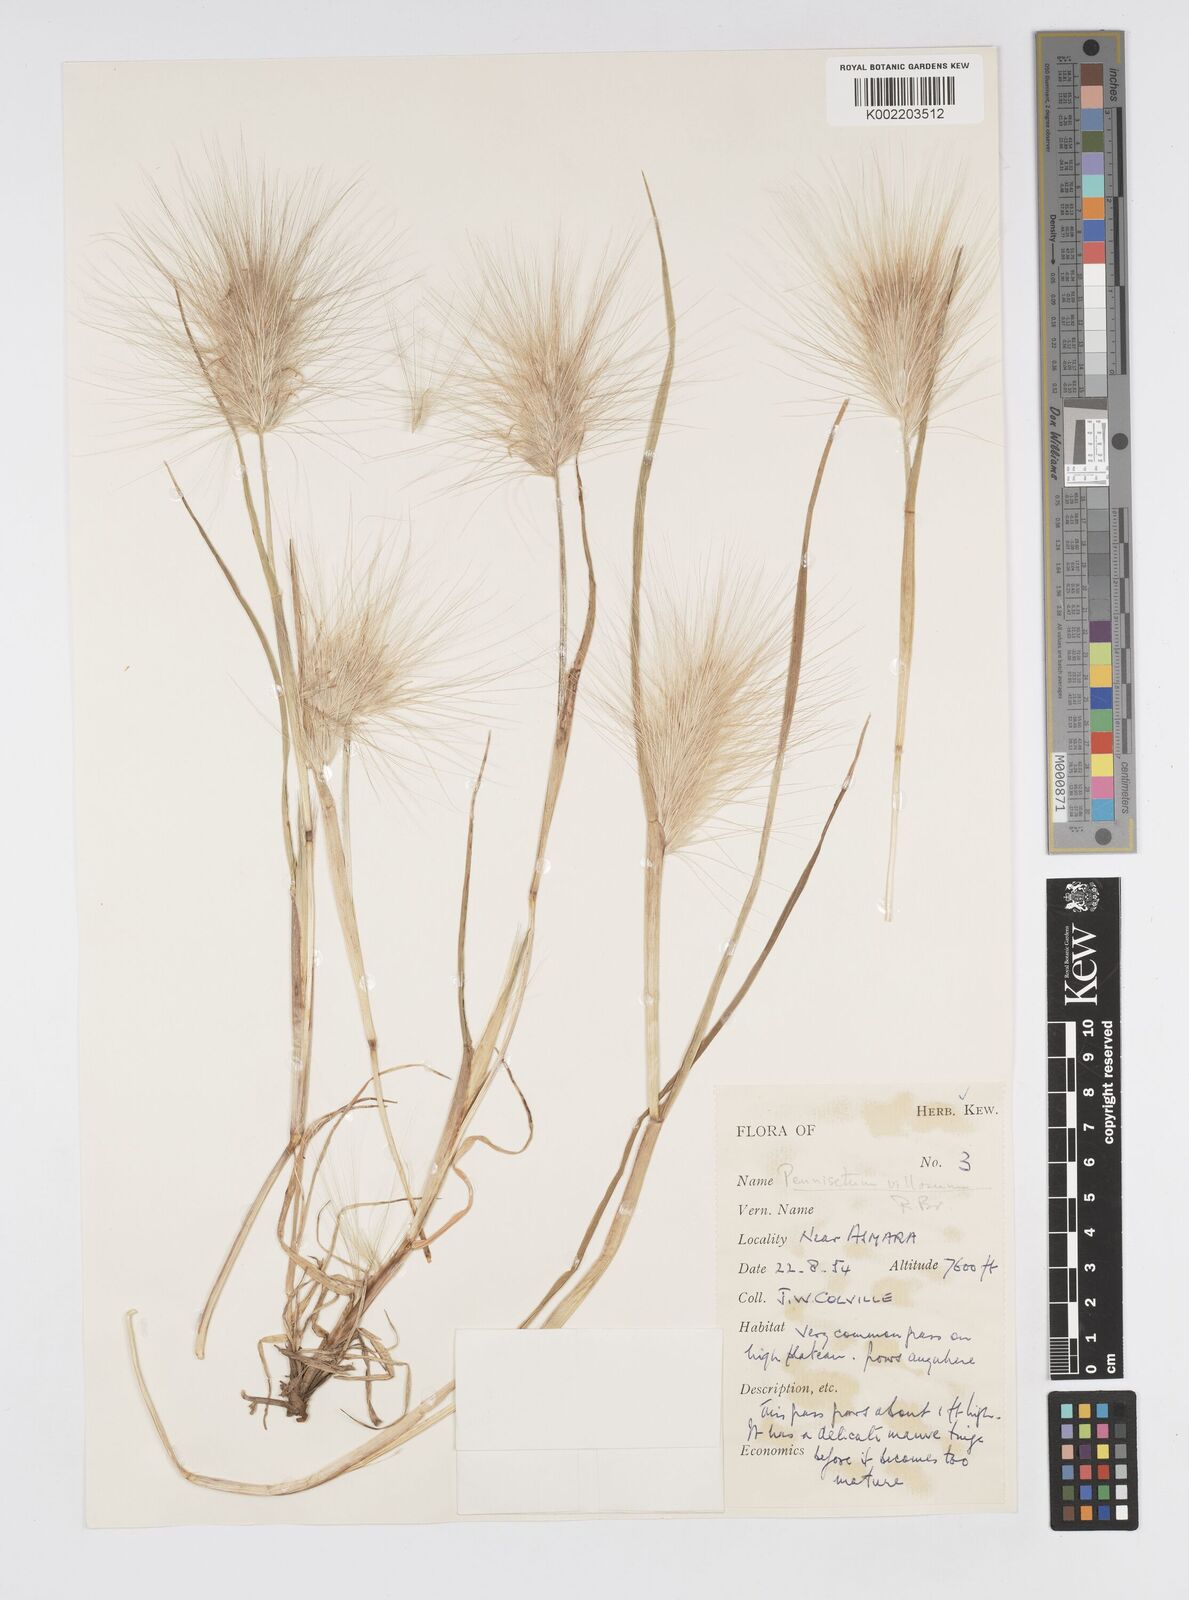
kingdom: Plantae
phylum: Tracheophyta
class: Liliopsida
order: Poales
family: Poaceae
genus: Cenchrus
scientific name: Cenchrus longisetus
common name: Feathertop
